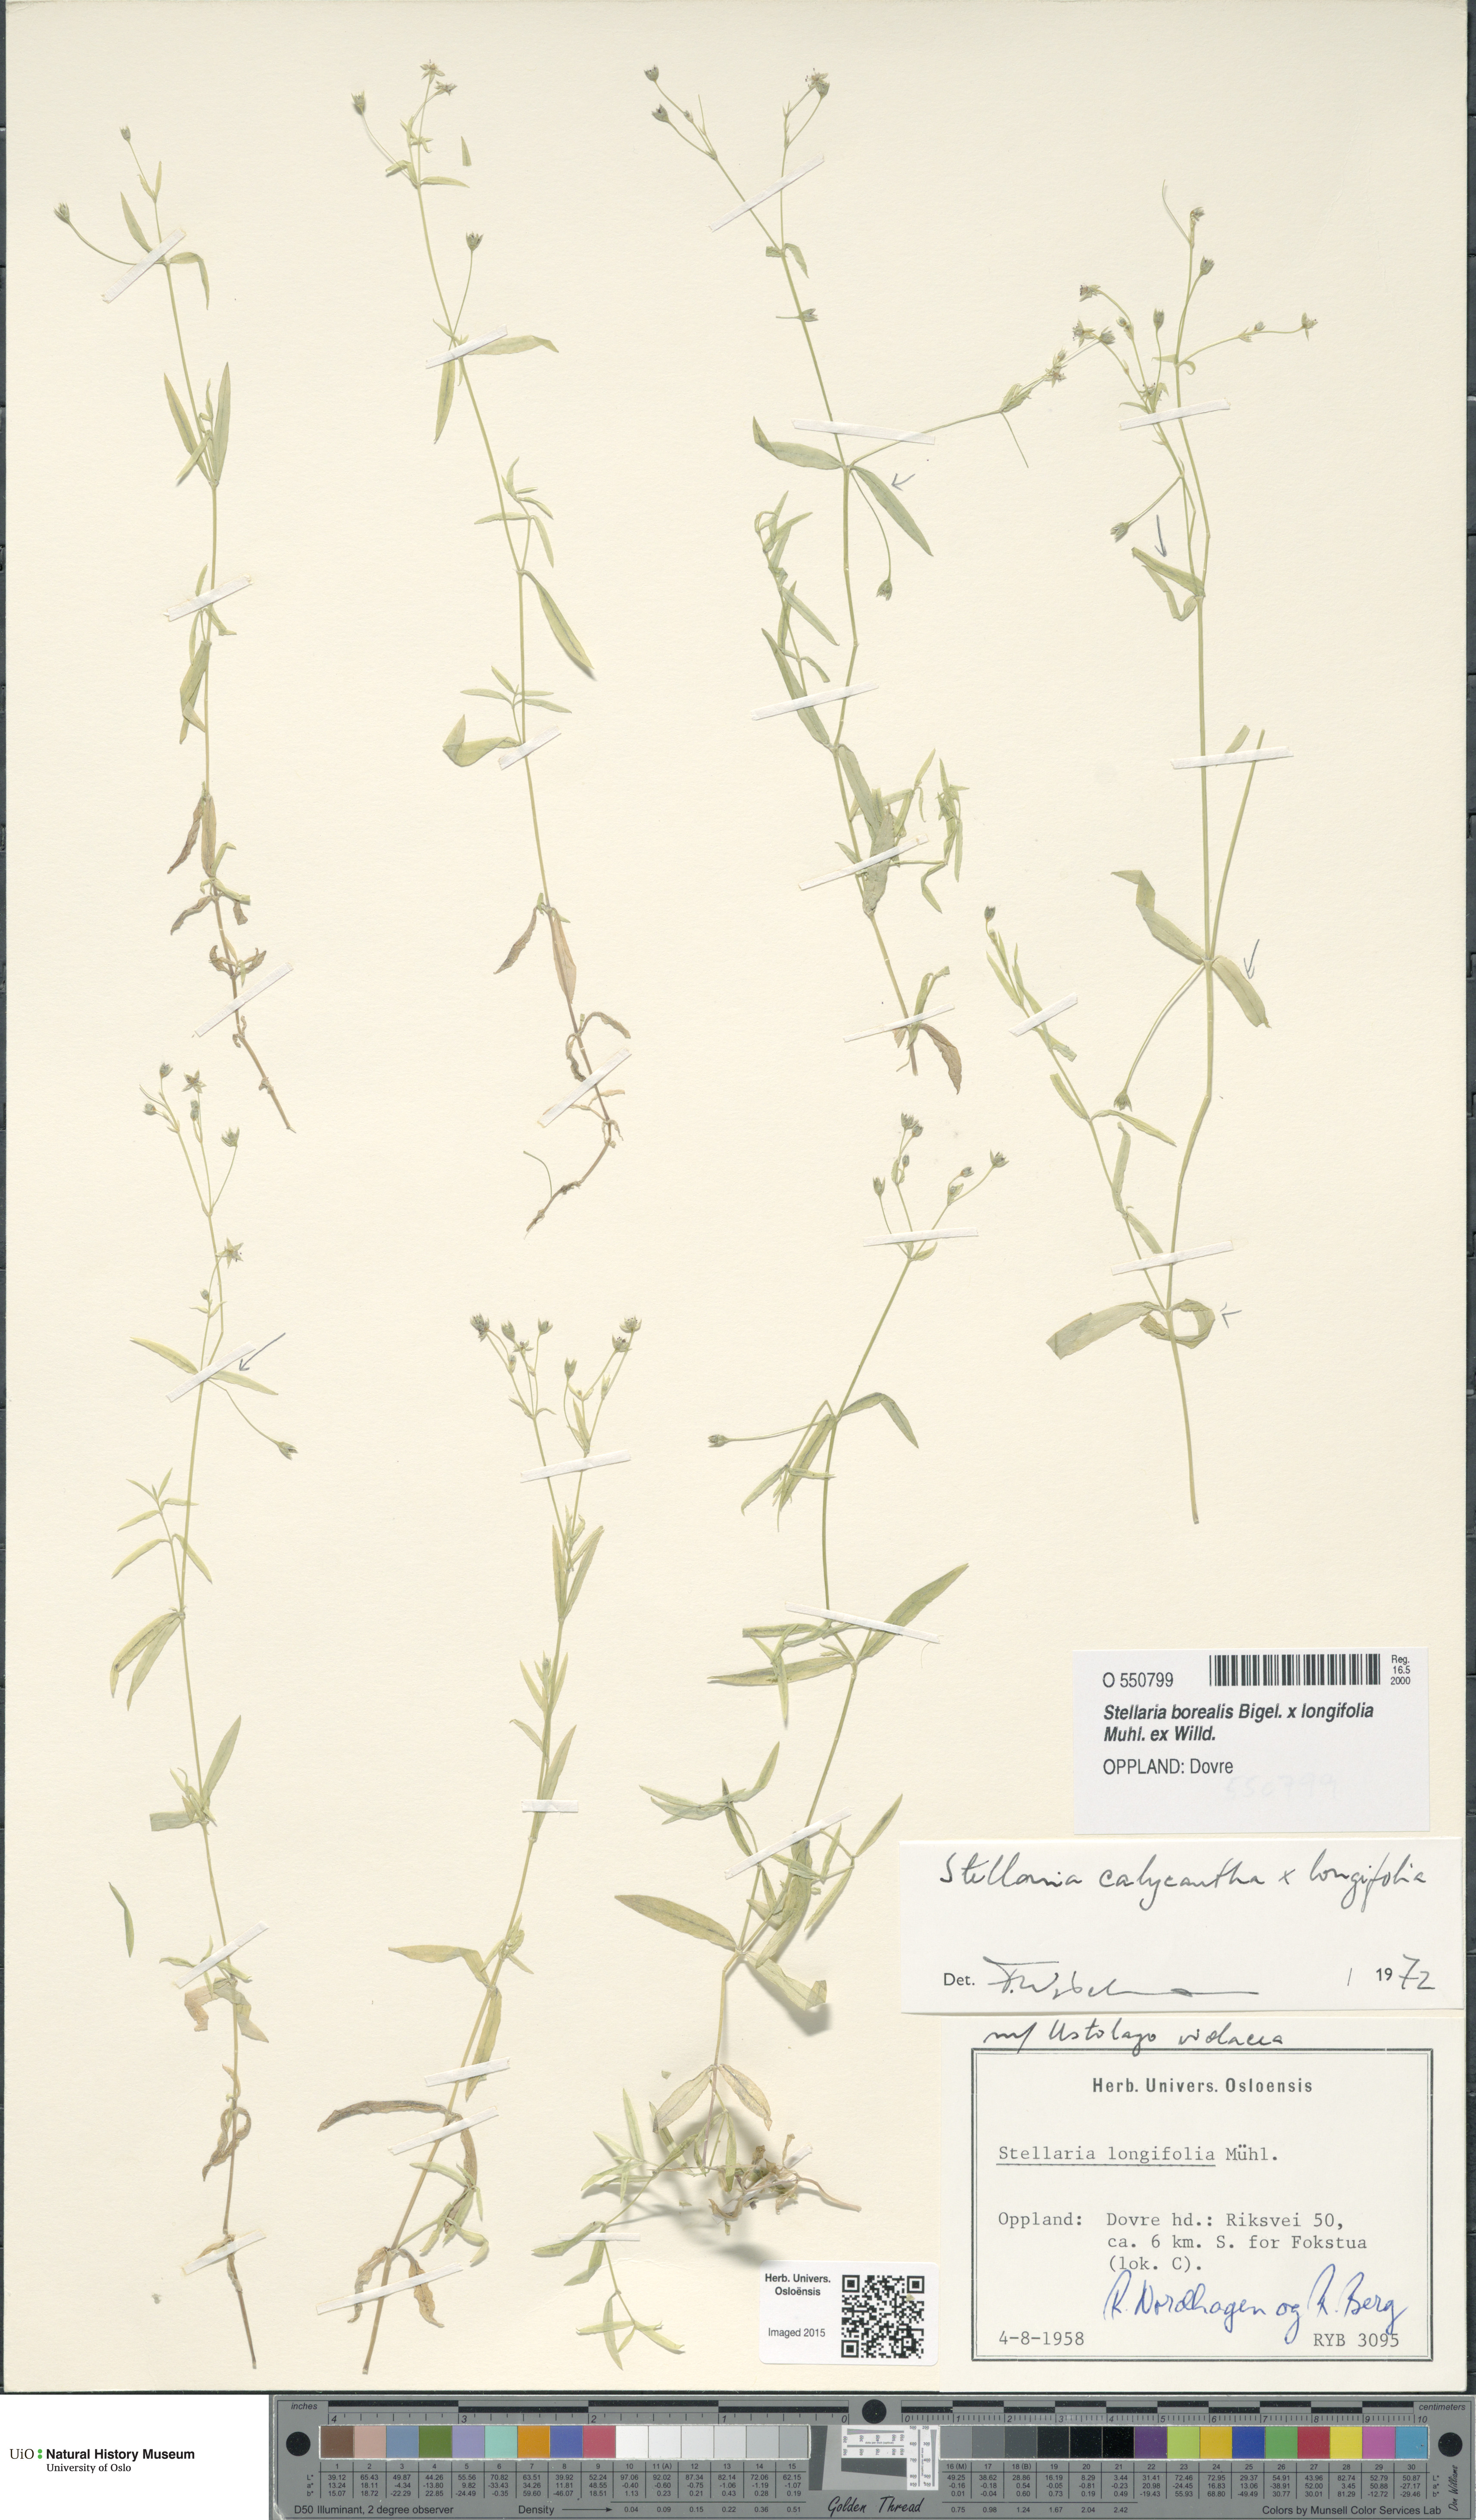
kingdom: Plantae
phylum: Tracheophyta
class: Magnoliopsida
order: Caryophyllales
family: Caryophyllaceae
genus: Stellaria
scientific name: Stellaria
